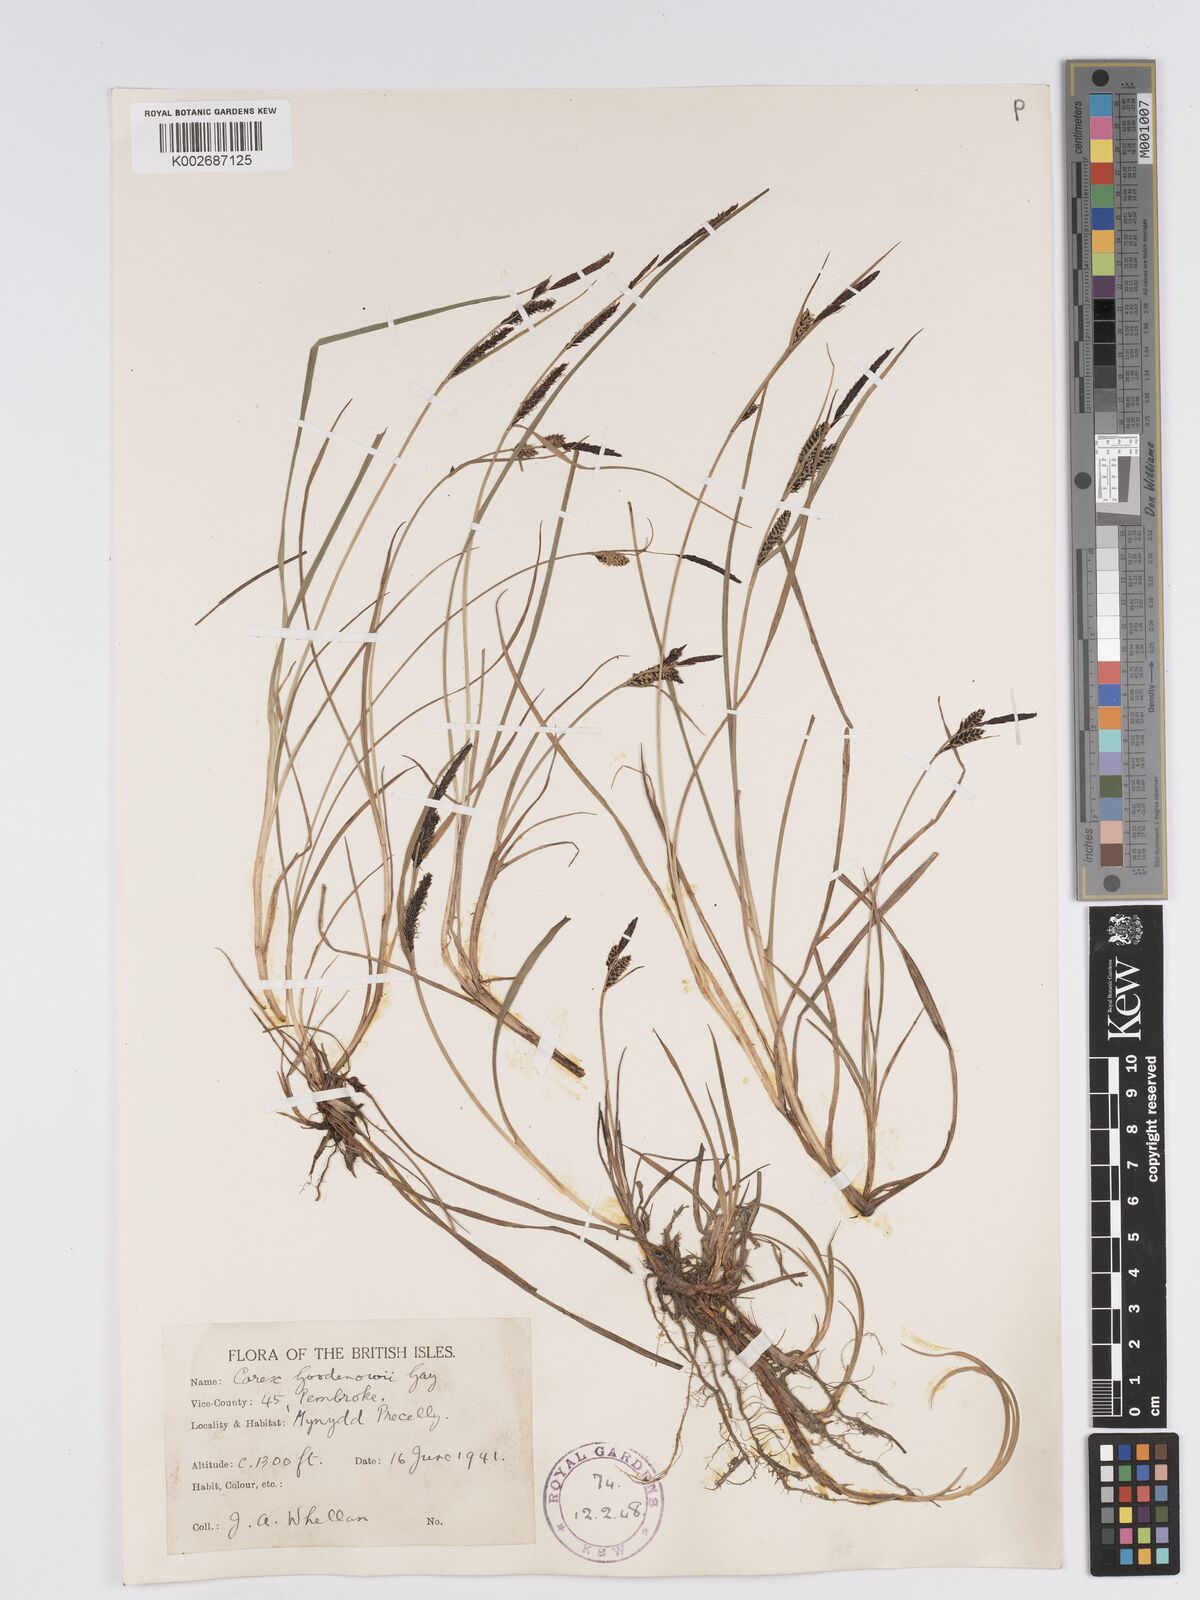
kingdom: Plantae
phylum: Tracheophyta
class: Liliopsida
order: Poales
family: Cyperaceae
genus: Carex
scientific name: Carex nigra
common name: Common sedge
